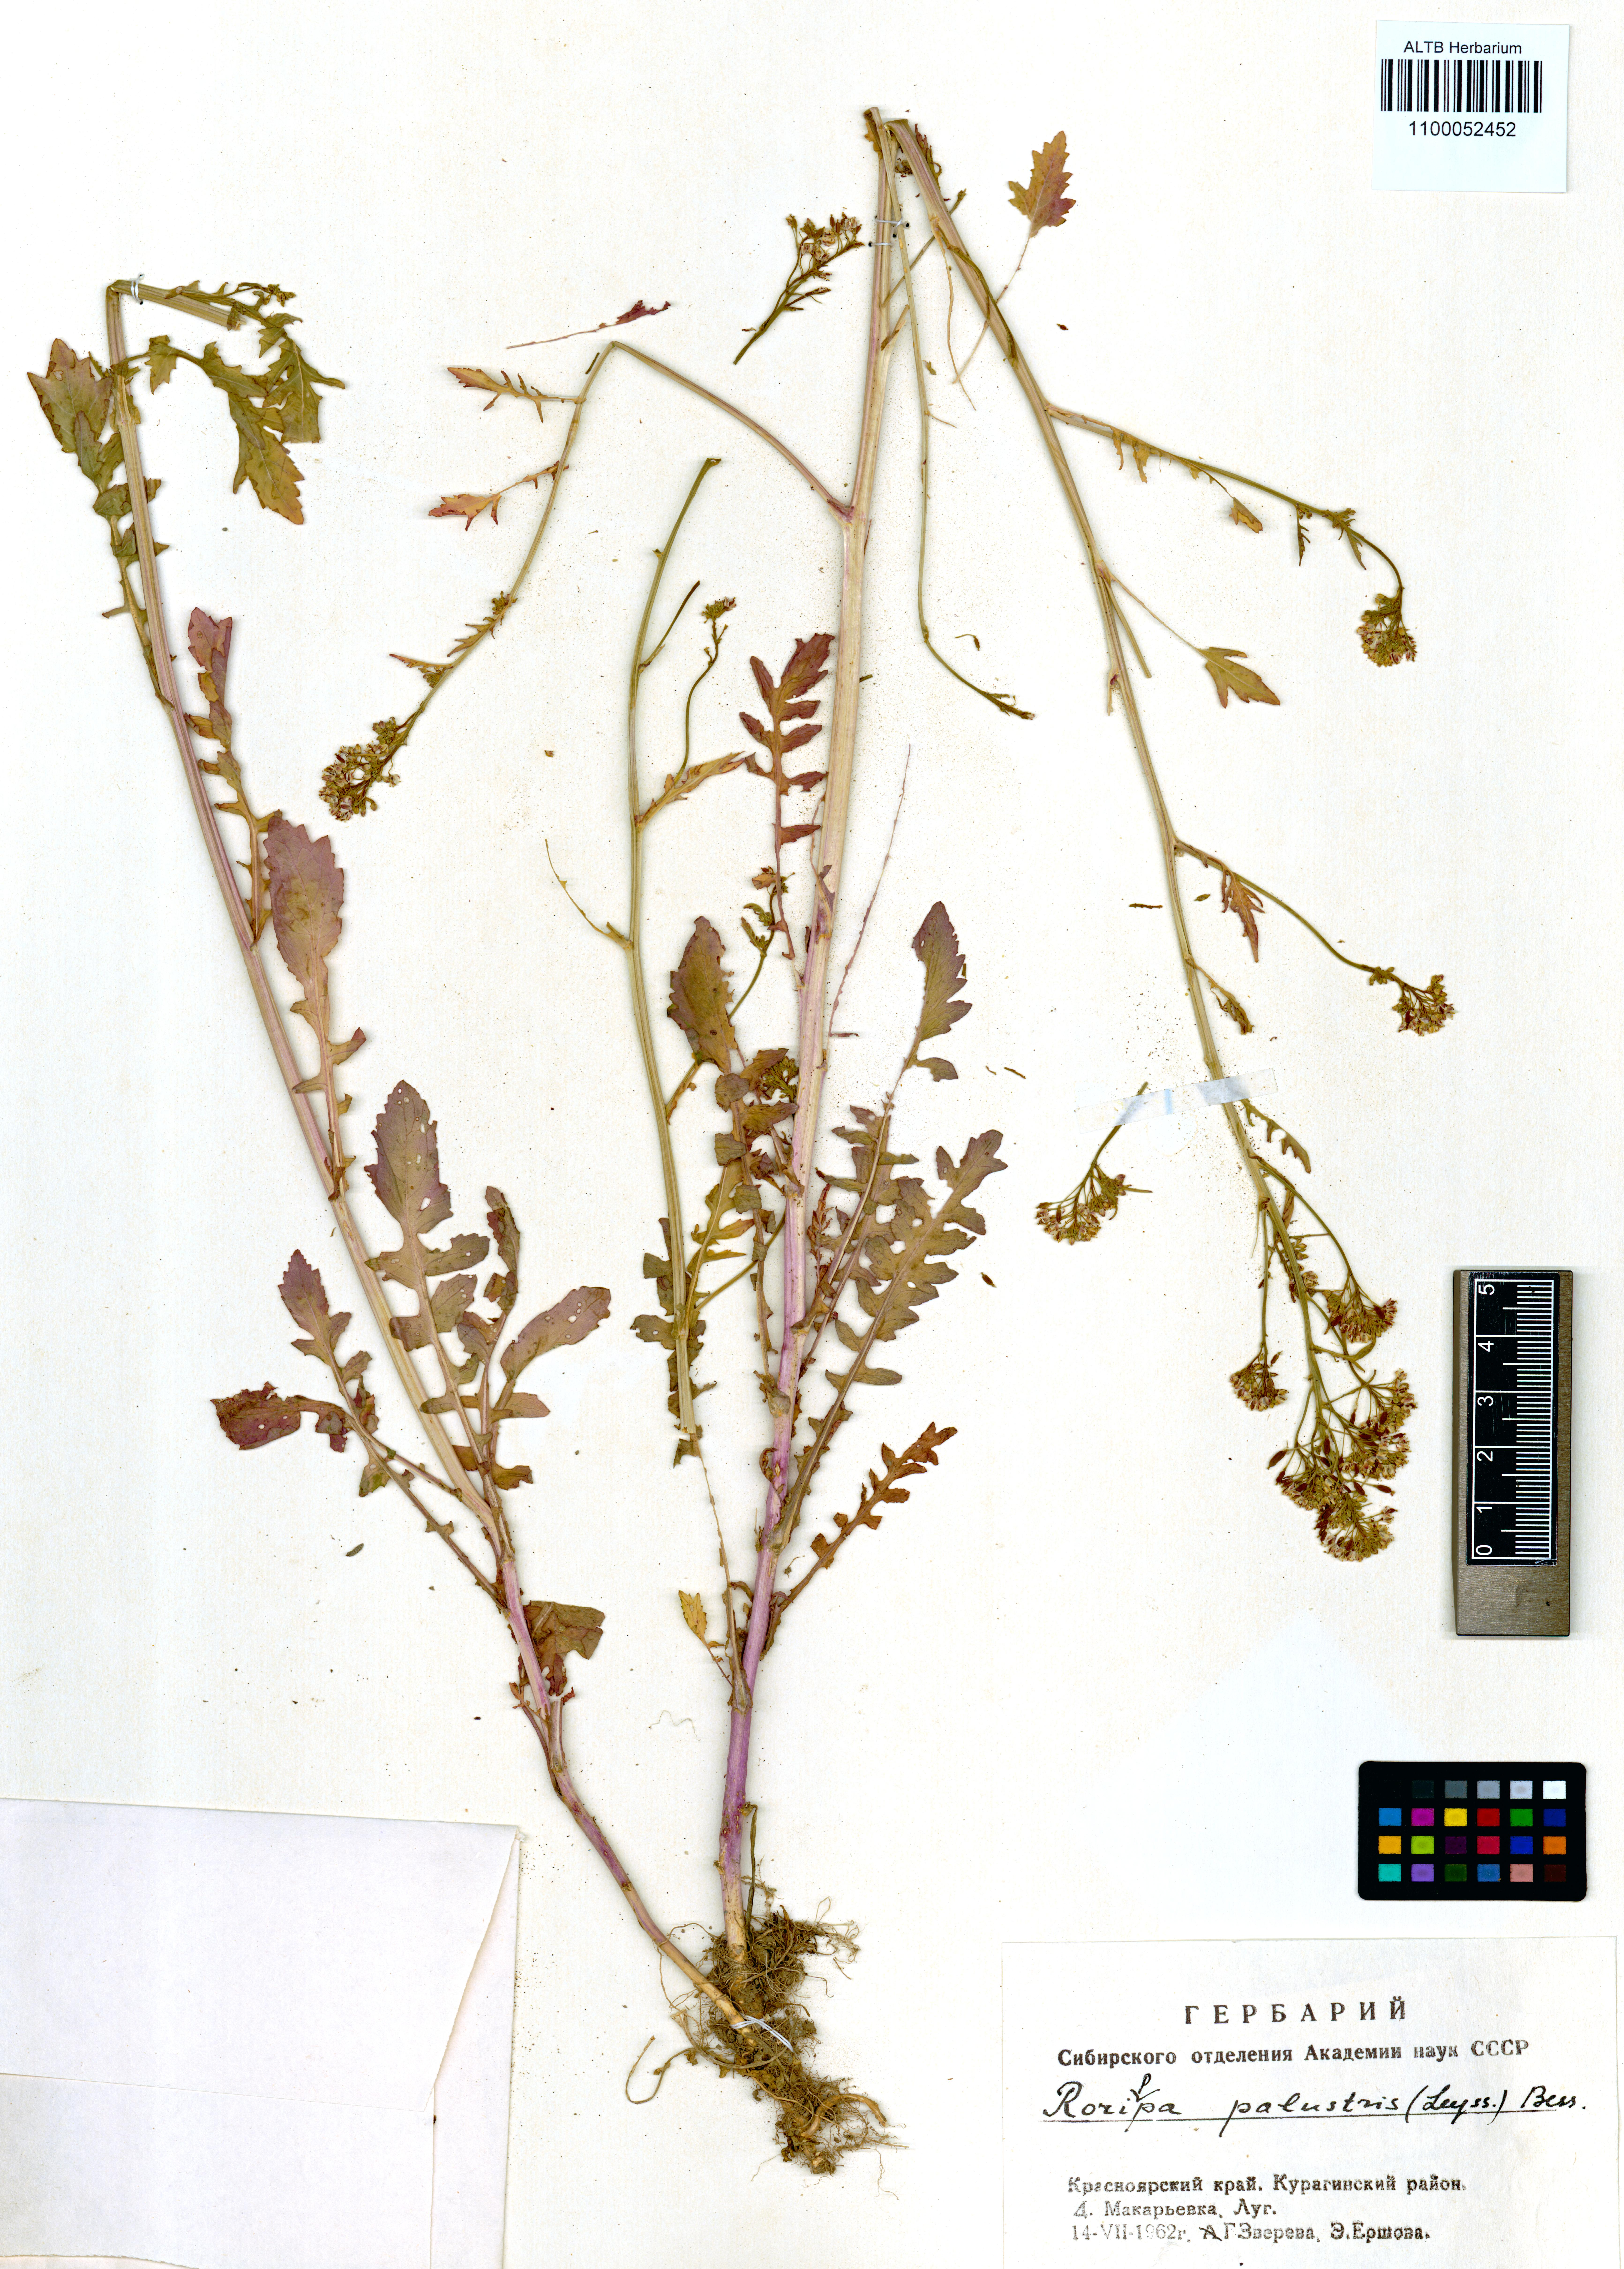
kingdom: Plantae
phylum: Tracheophyta
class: Magnoliopsida
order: Brassicales
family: Brassicaceae
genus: Rorippa
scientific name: Rorippa palustris
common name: Marsh yellow-cress
